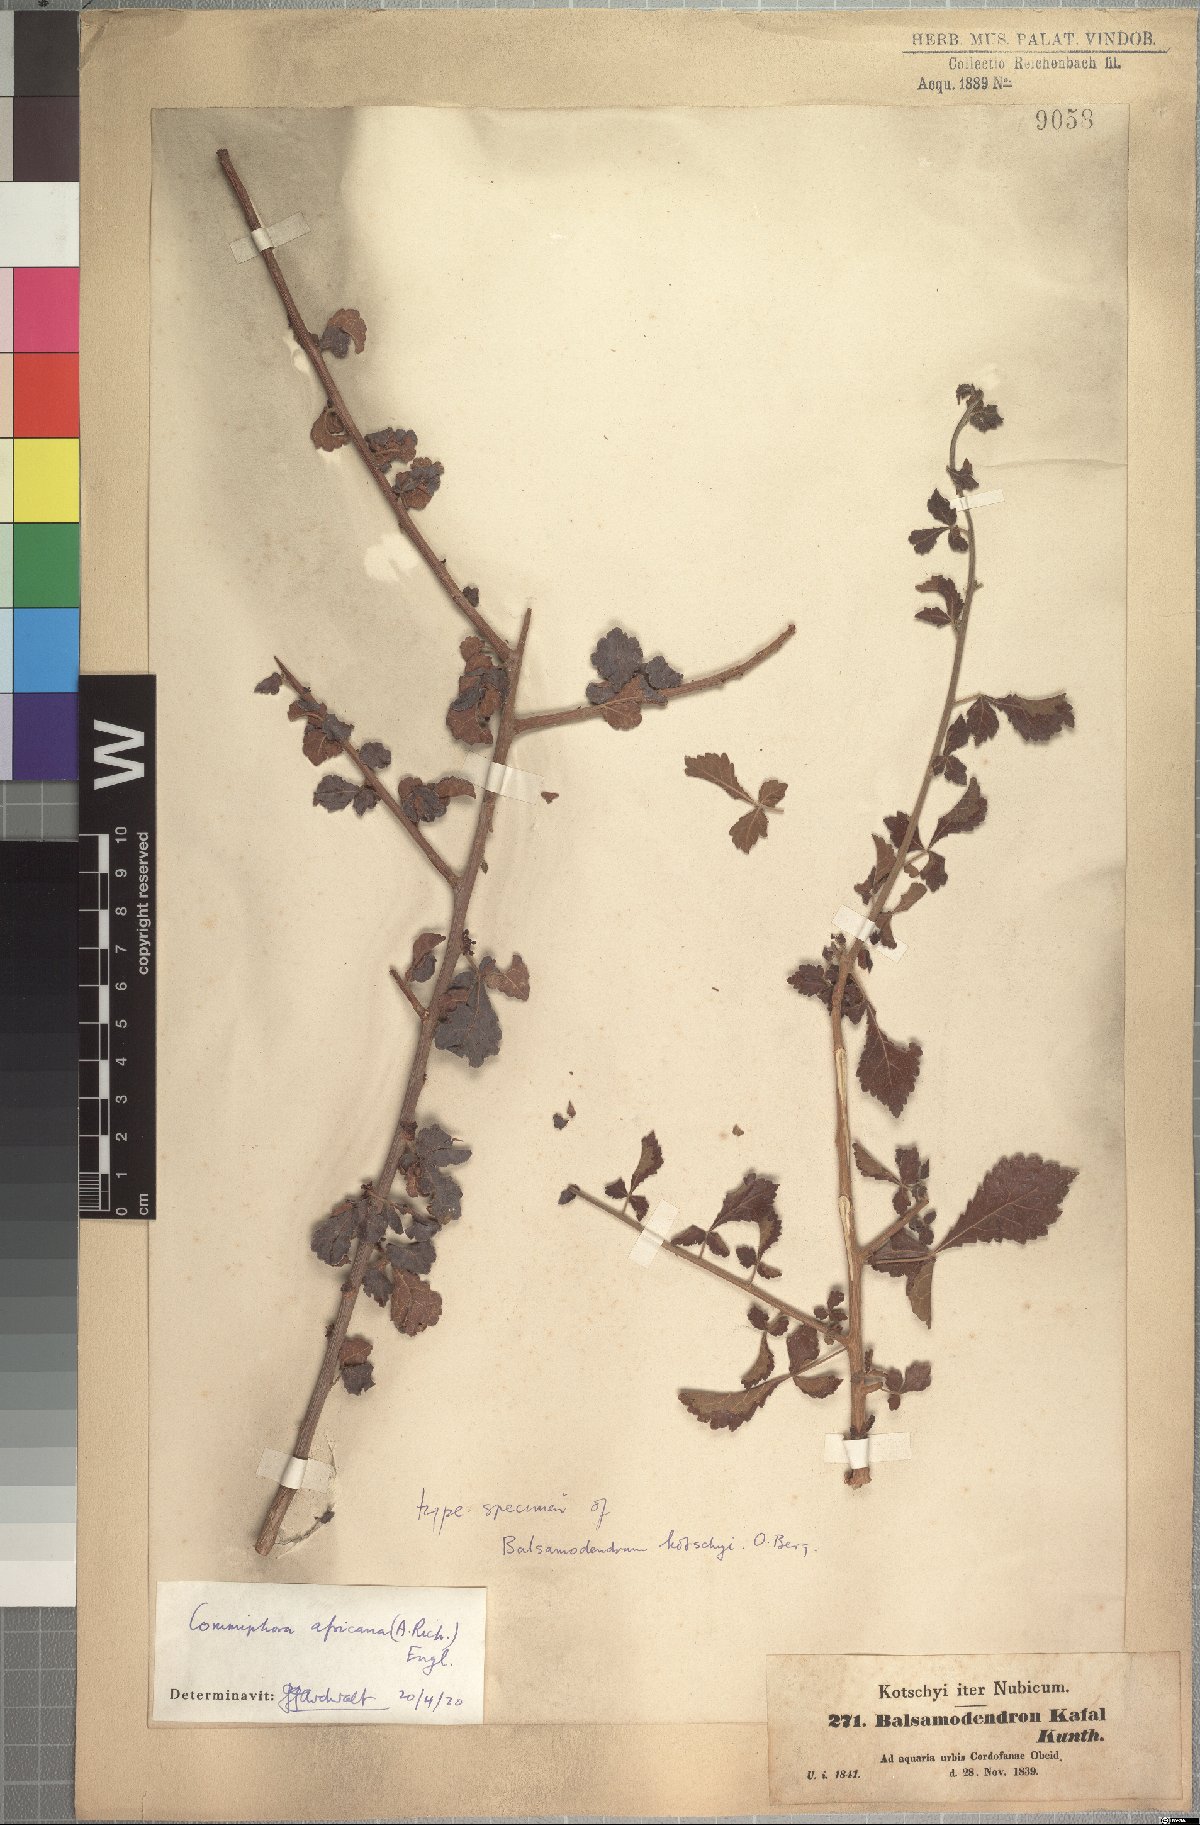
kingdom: Plantae
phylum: Tracheophyta
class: Magnoliopsida
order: Sapindales
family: Burseraceae
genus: Commiphora
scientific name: Commiphora africana
